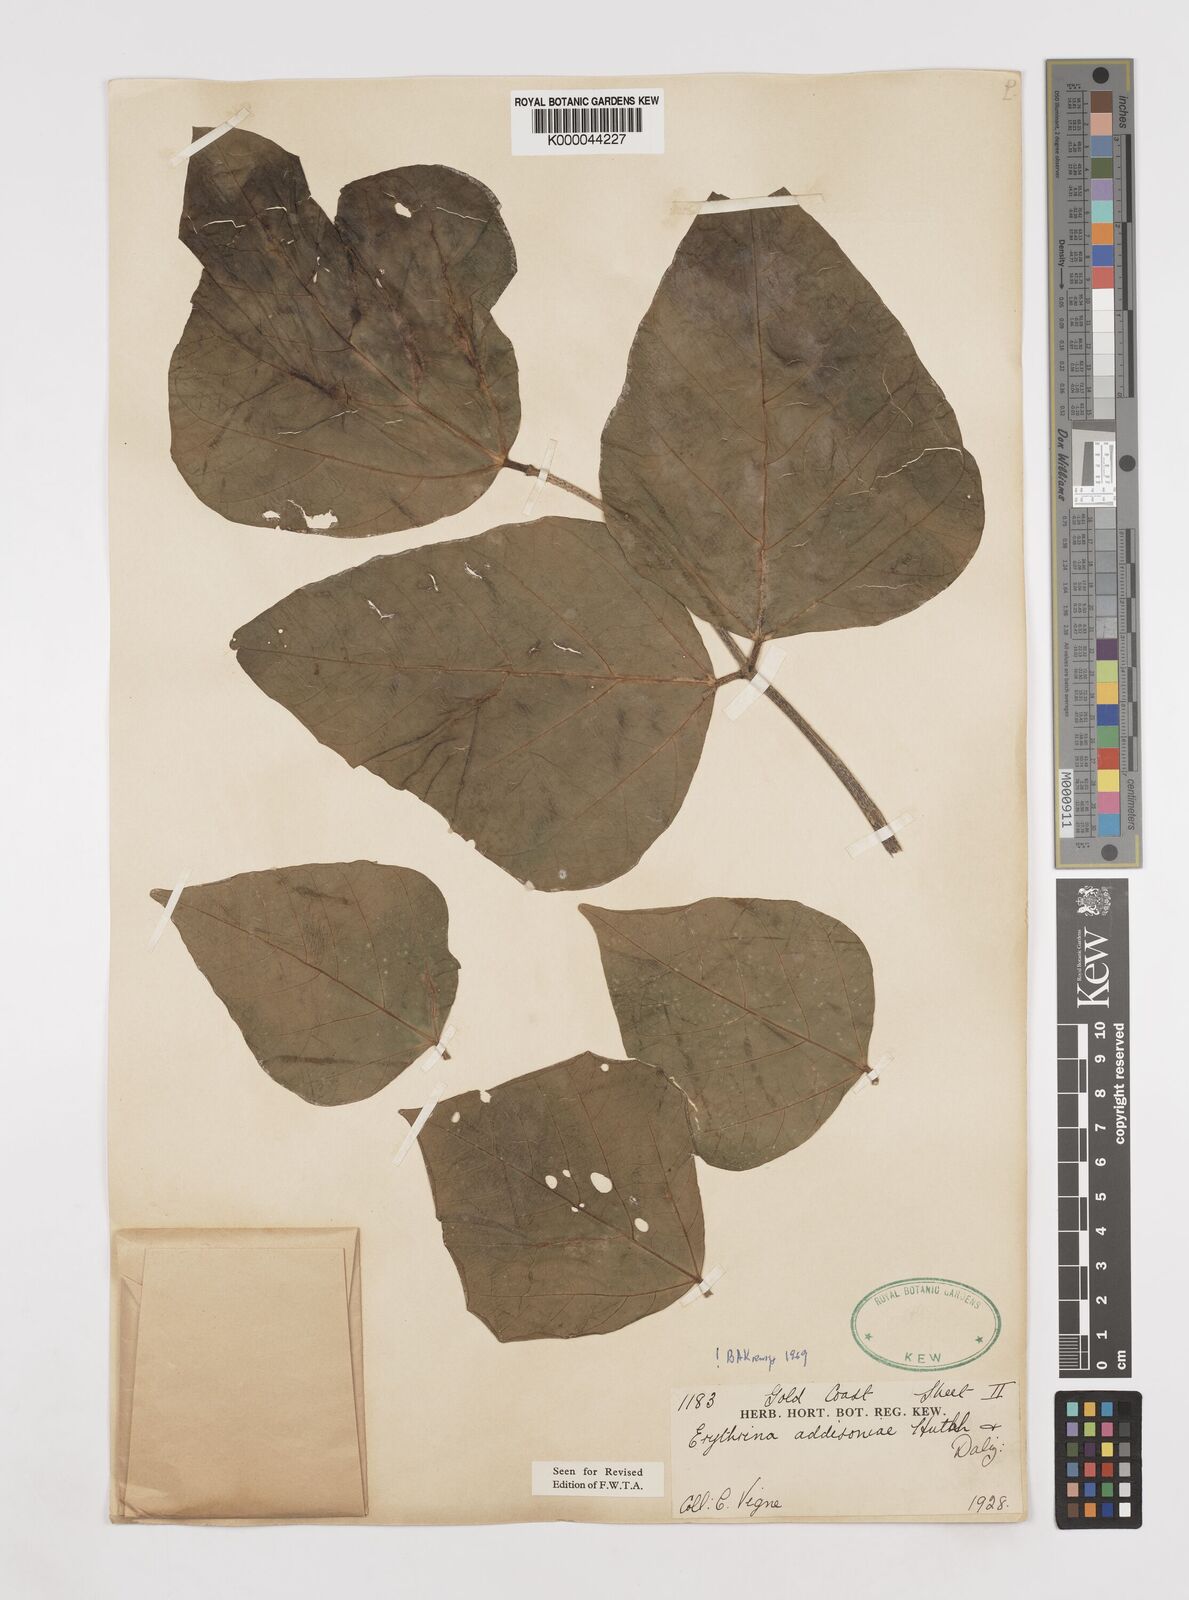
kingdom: Plantae
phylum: Tracheophyta
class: Magnoliopsida
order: Fabales
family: Fabaceae
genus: Erythrina
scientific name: Erythrina addisoniae
